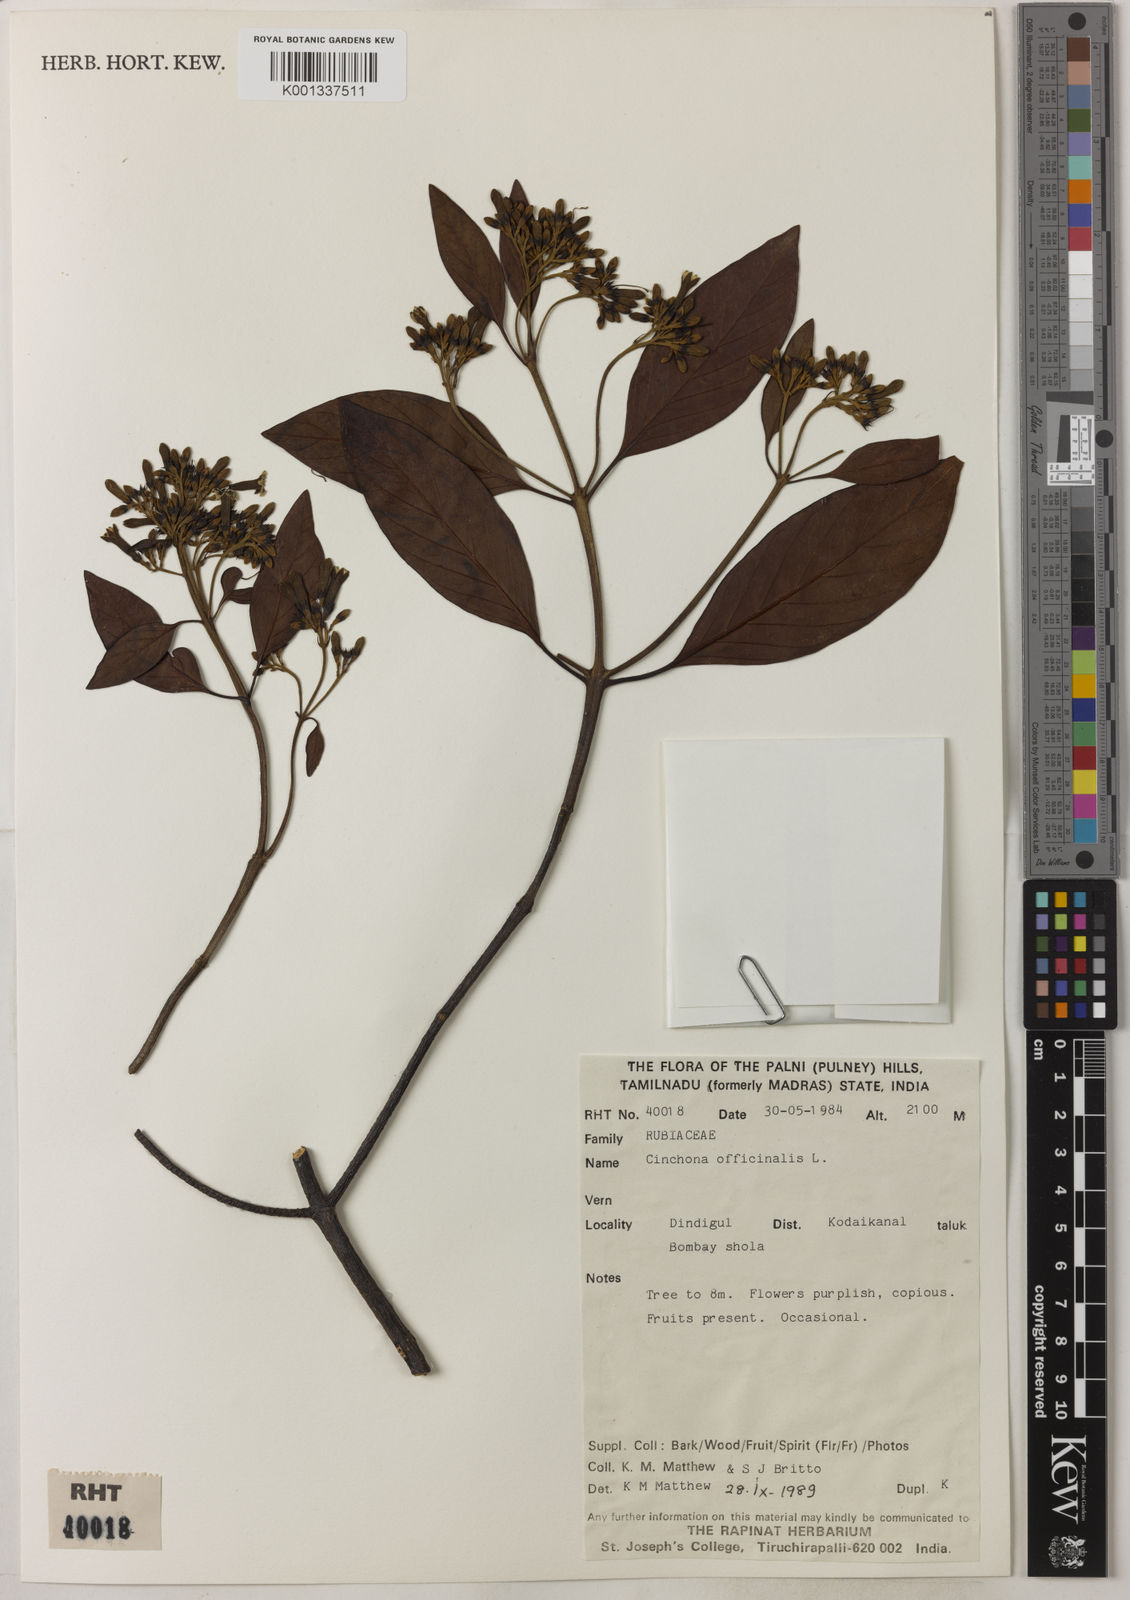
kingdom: Plantae
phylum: Tracheophyta
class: Magnoliopsida
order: Gentianales
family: Rubiaceae
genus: Cinchona
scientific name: Cinchona officinalis
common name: Lojabark
